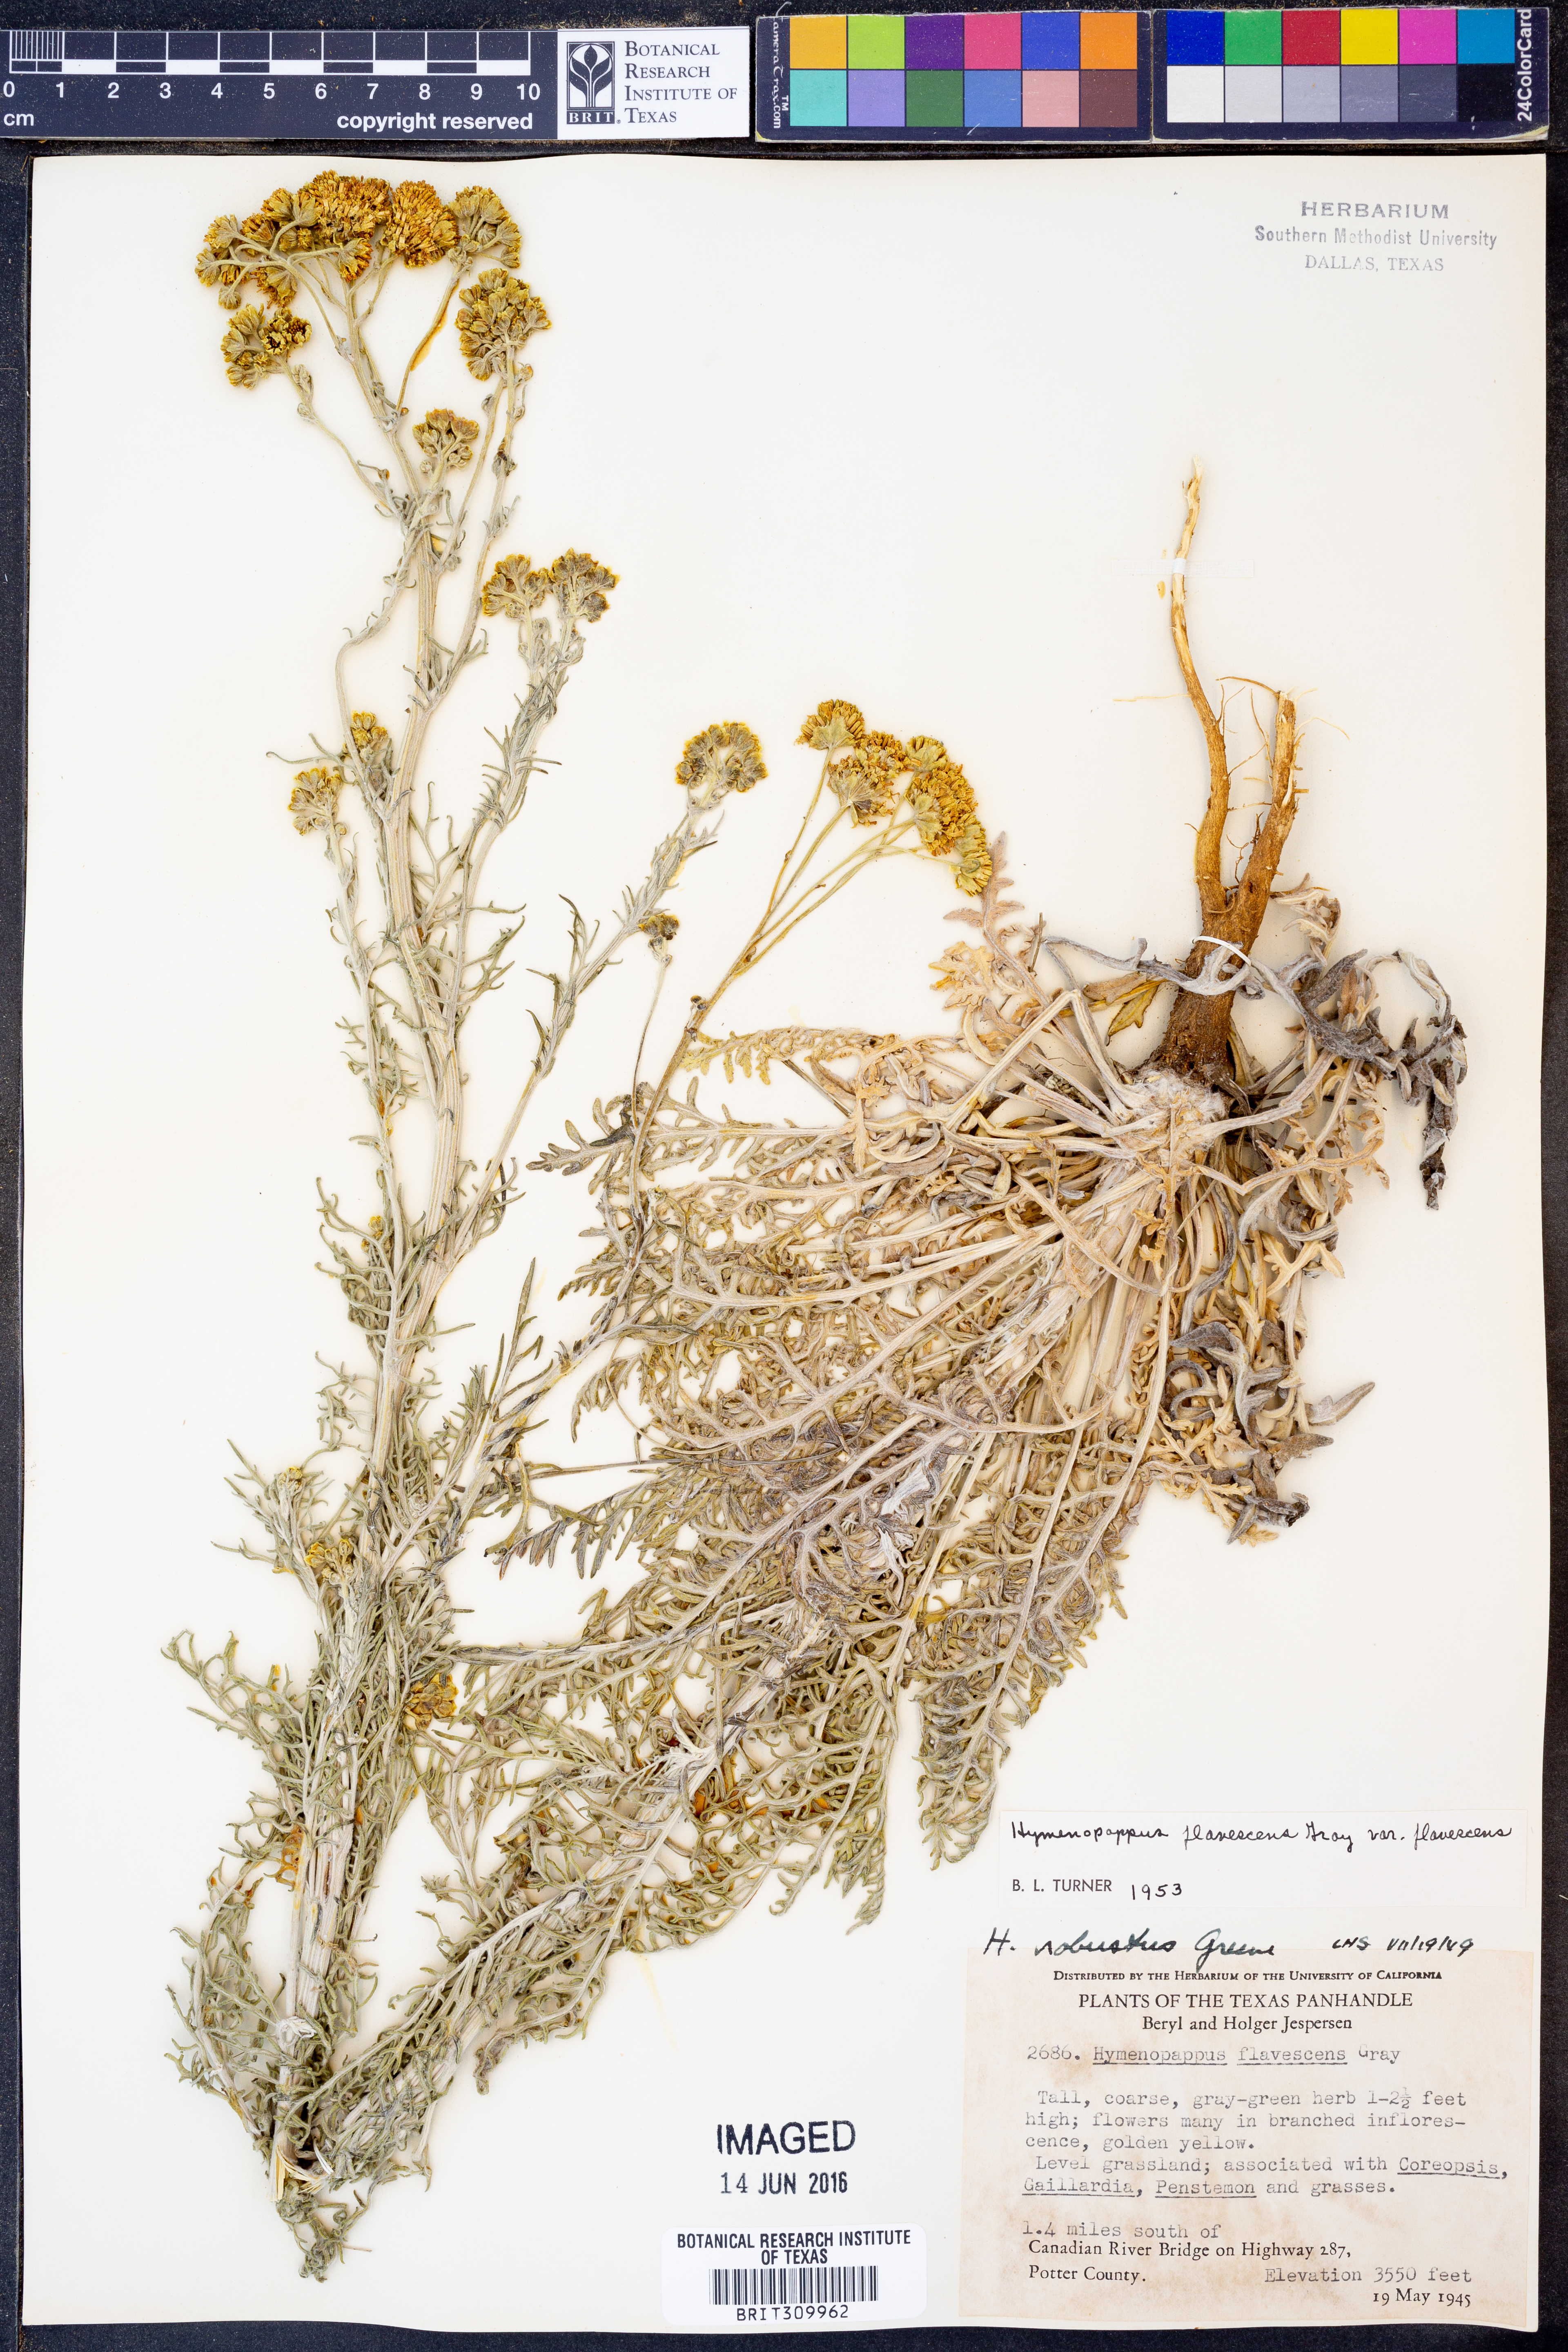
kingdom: Plantae
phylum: Tracheophyta
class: Magnoliopsida
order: Asterales
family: Asteraceae
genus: Hymenopappus
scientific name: Hymenopappus flavescens
